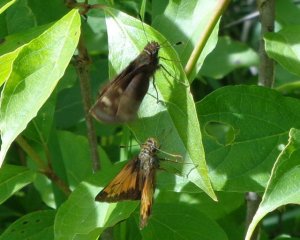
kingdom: Animalia
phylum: Arthropoda
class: Insecta
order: Lepidoptera
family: Hesperiidae
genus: Lon
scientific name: Lon hobomok
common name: Hobomok Skipper
